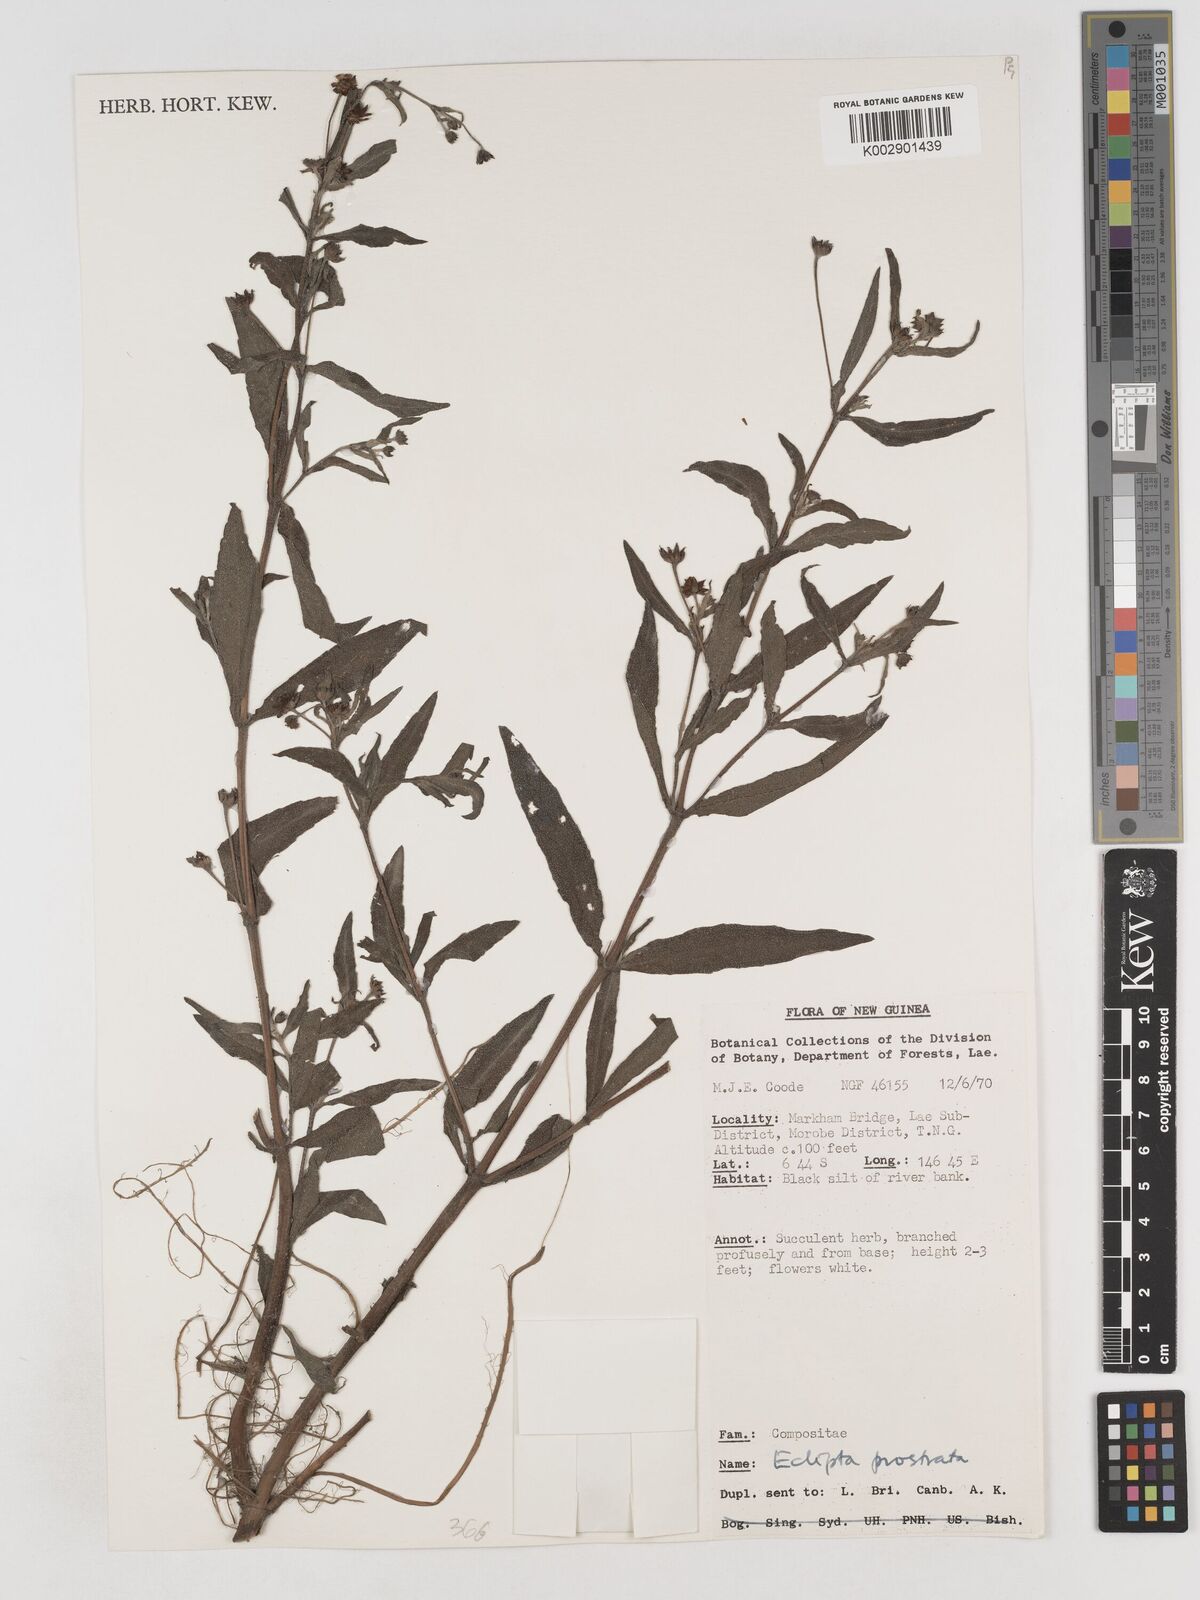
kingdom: Plantae
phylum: Tracheophyta
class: Magnoliopsida
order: Asterales
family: Asteraceae
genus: Eclipta
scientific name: Eclipta prostrata
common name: False daisy
